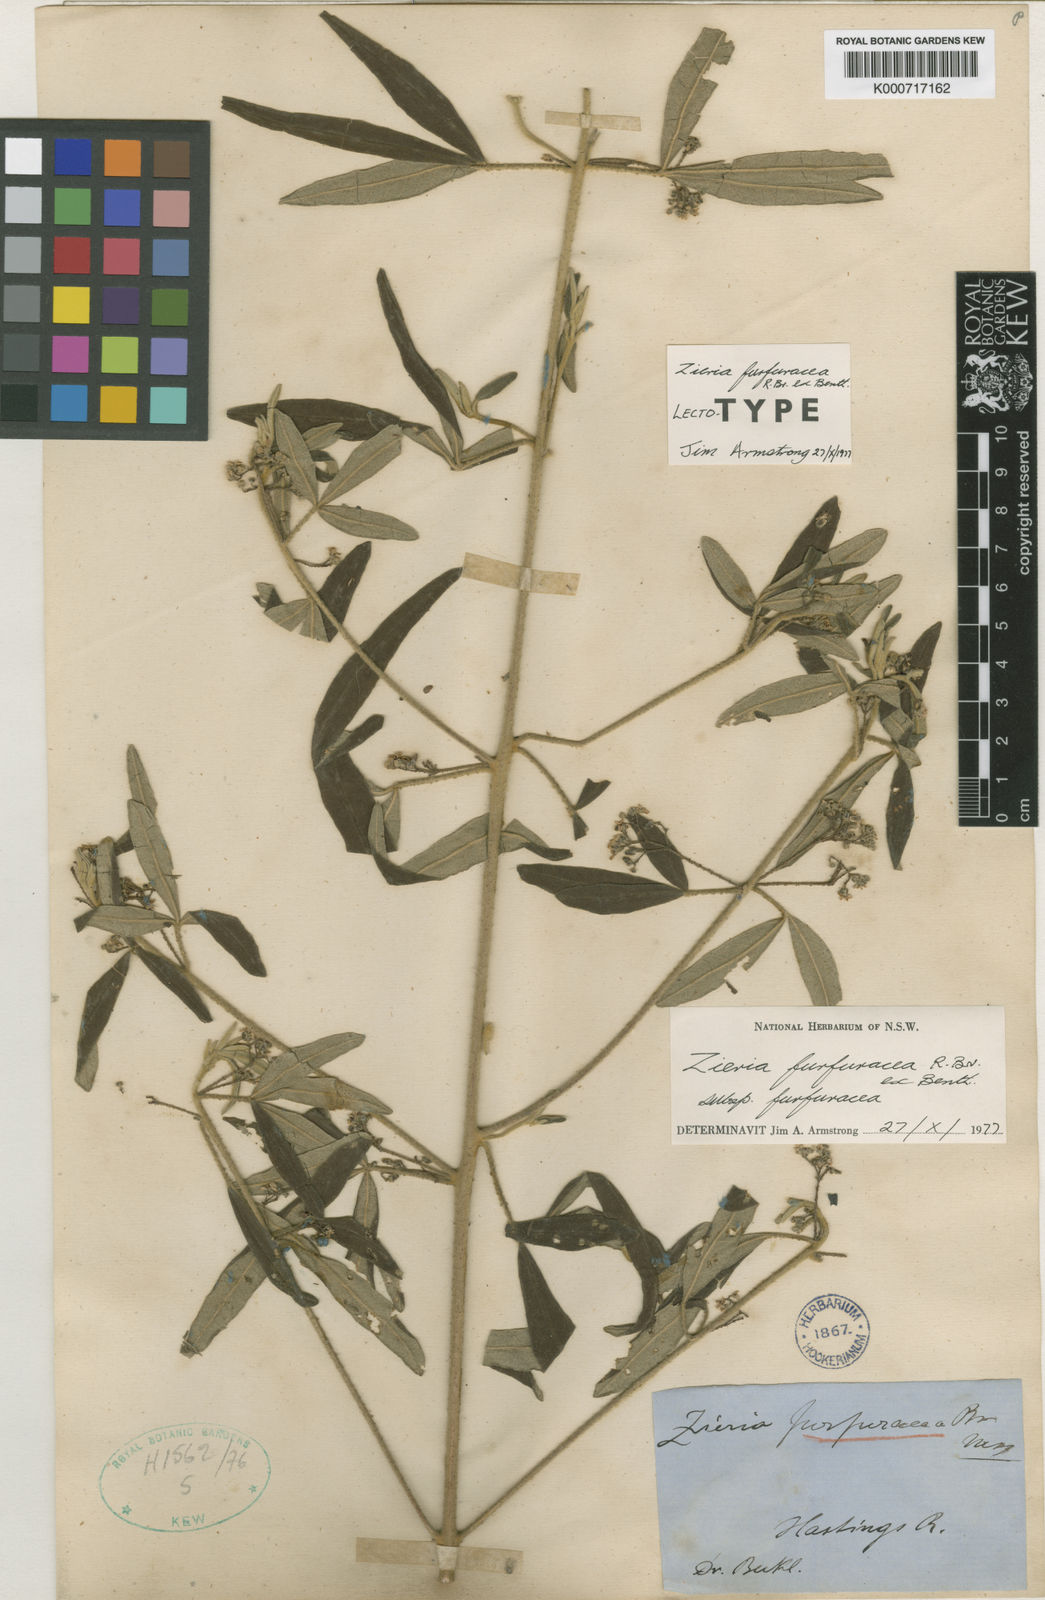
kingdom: Plantae
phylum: Tracheophyta
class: Magnoliopsida
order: Sapindales
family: Rutaceae
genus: Zieria
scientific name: Zieria furfuracea
